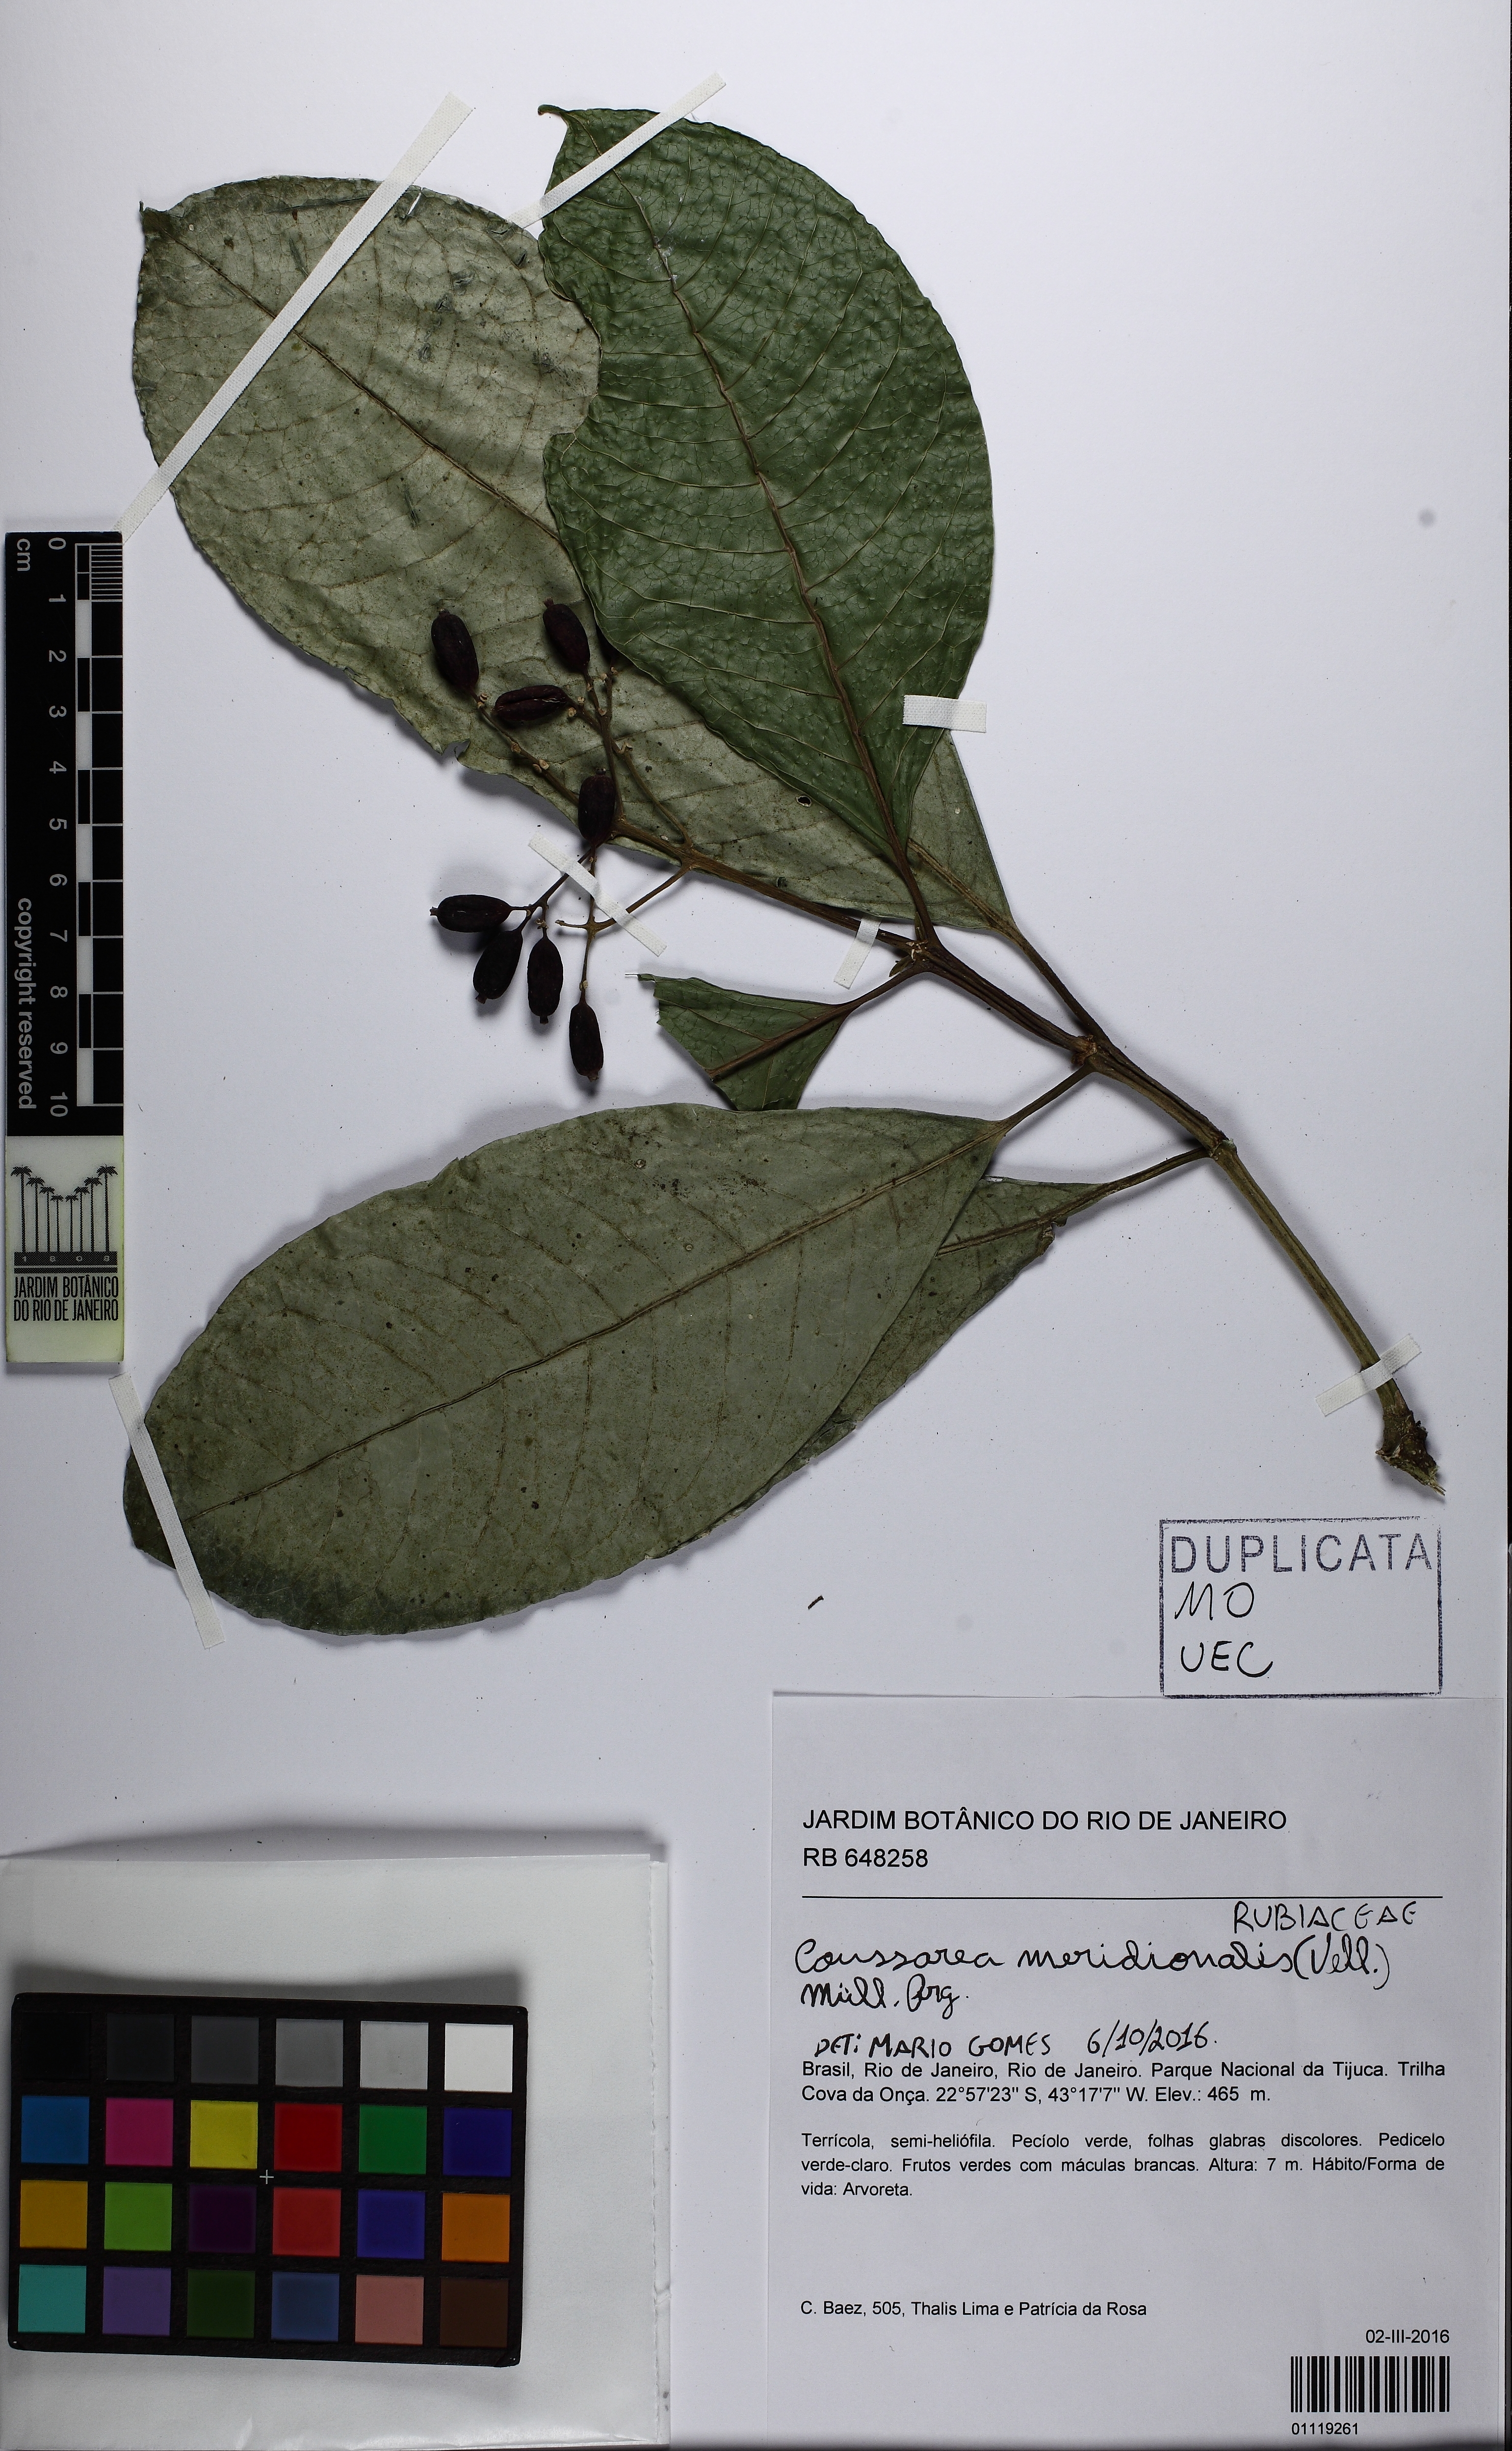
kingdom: Plantae
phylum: Tracheophyta
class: Magnoliopsida
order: Gentianales
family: Rubiaceae
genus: Coussarea
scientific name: Coussarea meridionalis
